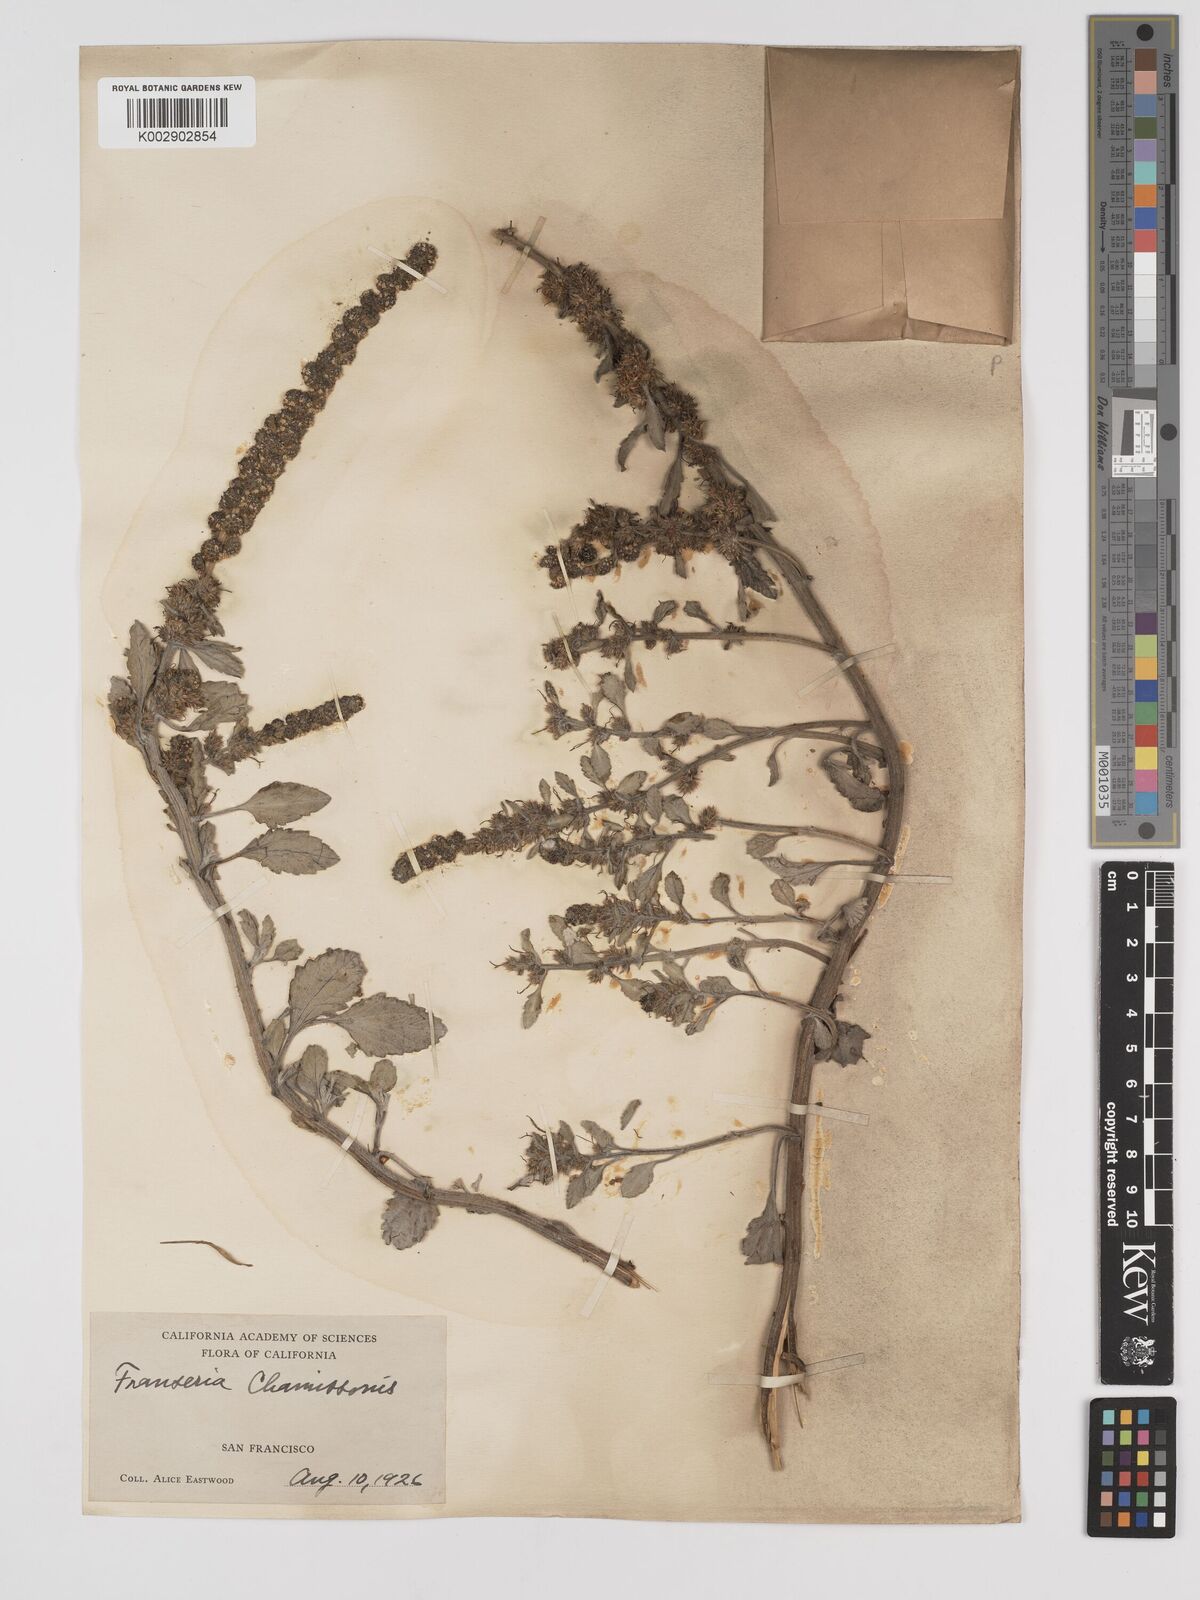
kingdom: Plantae
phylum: Tracheophyta
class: Magnoliopsida
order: Asterales
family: Asteraceae
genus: Ambrosia
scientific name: Ambrosia chamissonis
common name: Beachbur
